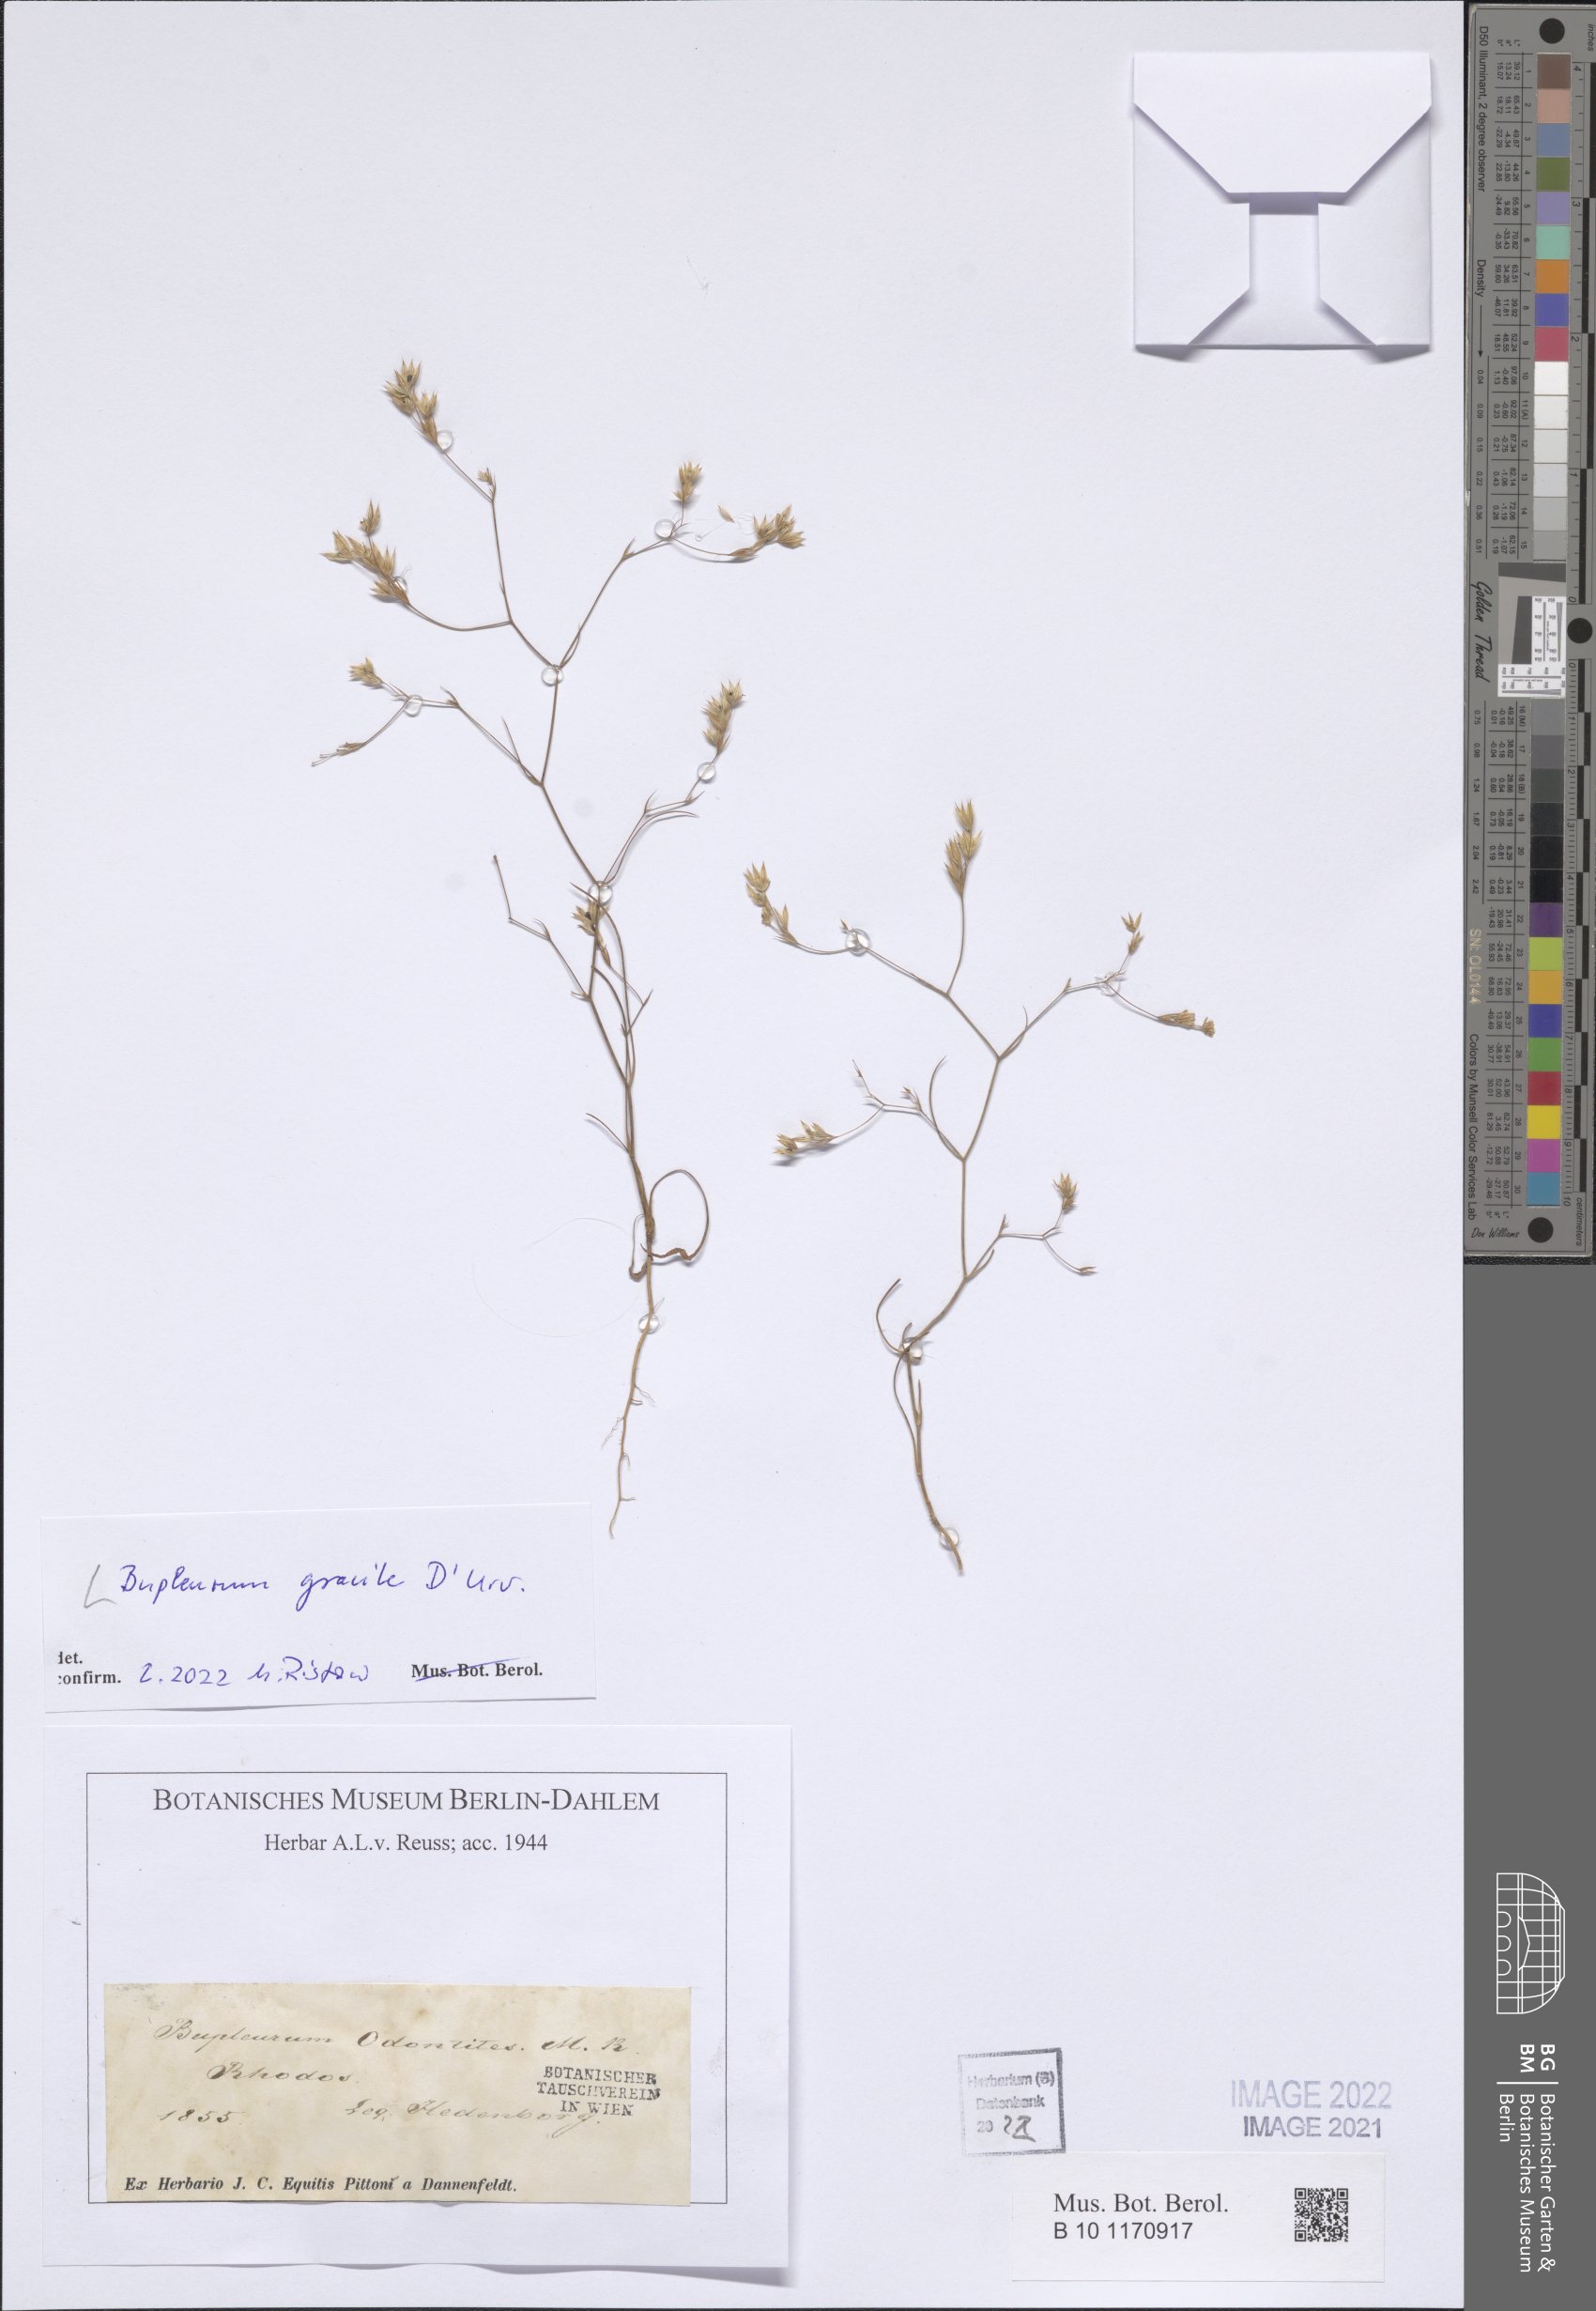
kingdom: Plantae
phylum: Tracheophyta
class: Magnoliopsida
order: Apiales
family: Apiaceae
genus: Bupleurum
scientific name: Bupleurum gracile
